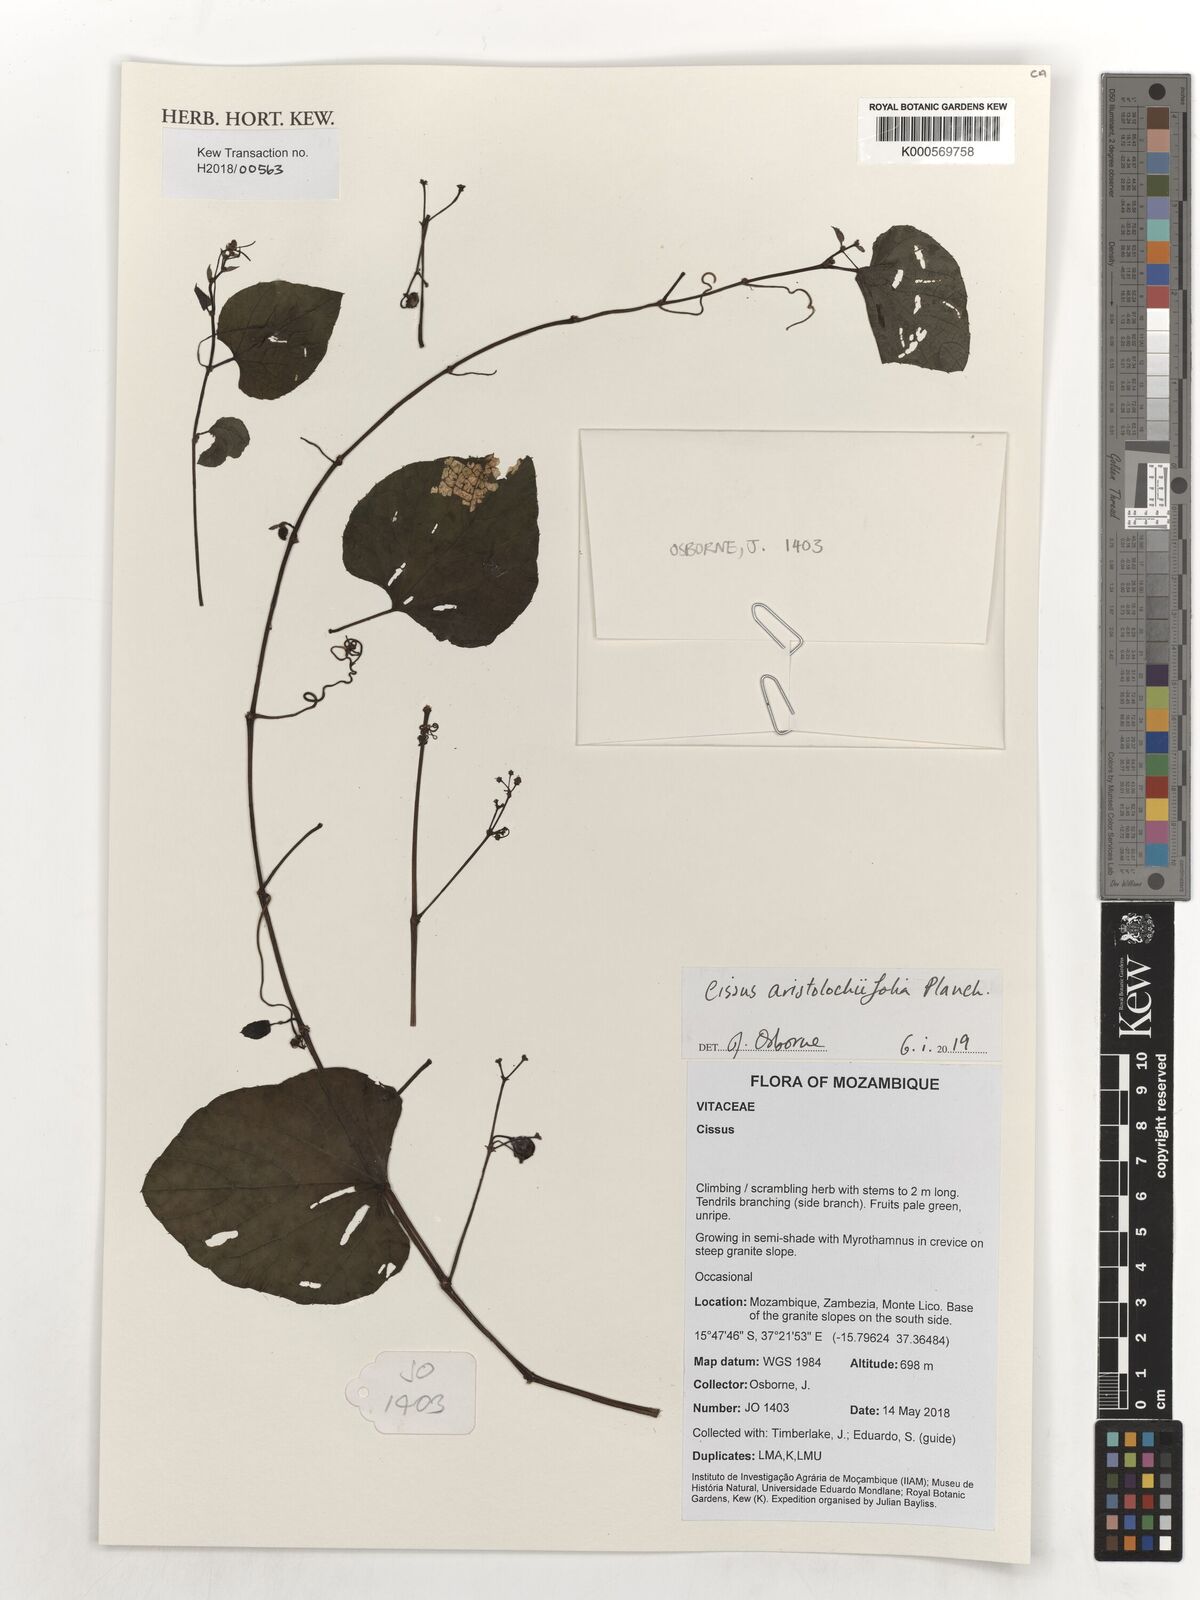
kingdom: Plantae
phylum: Tracheophyta
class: Magnoliopsida
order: Vitales
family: Vitaceae
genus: Cissus
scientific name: Cissus aristolochiifolia
